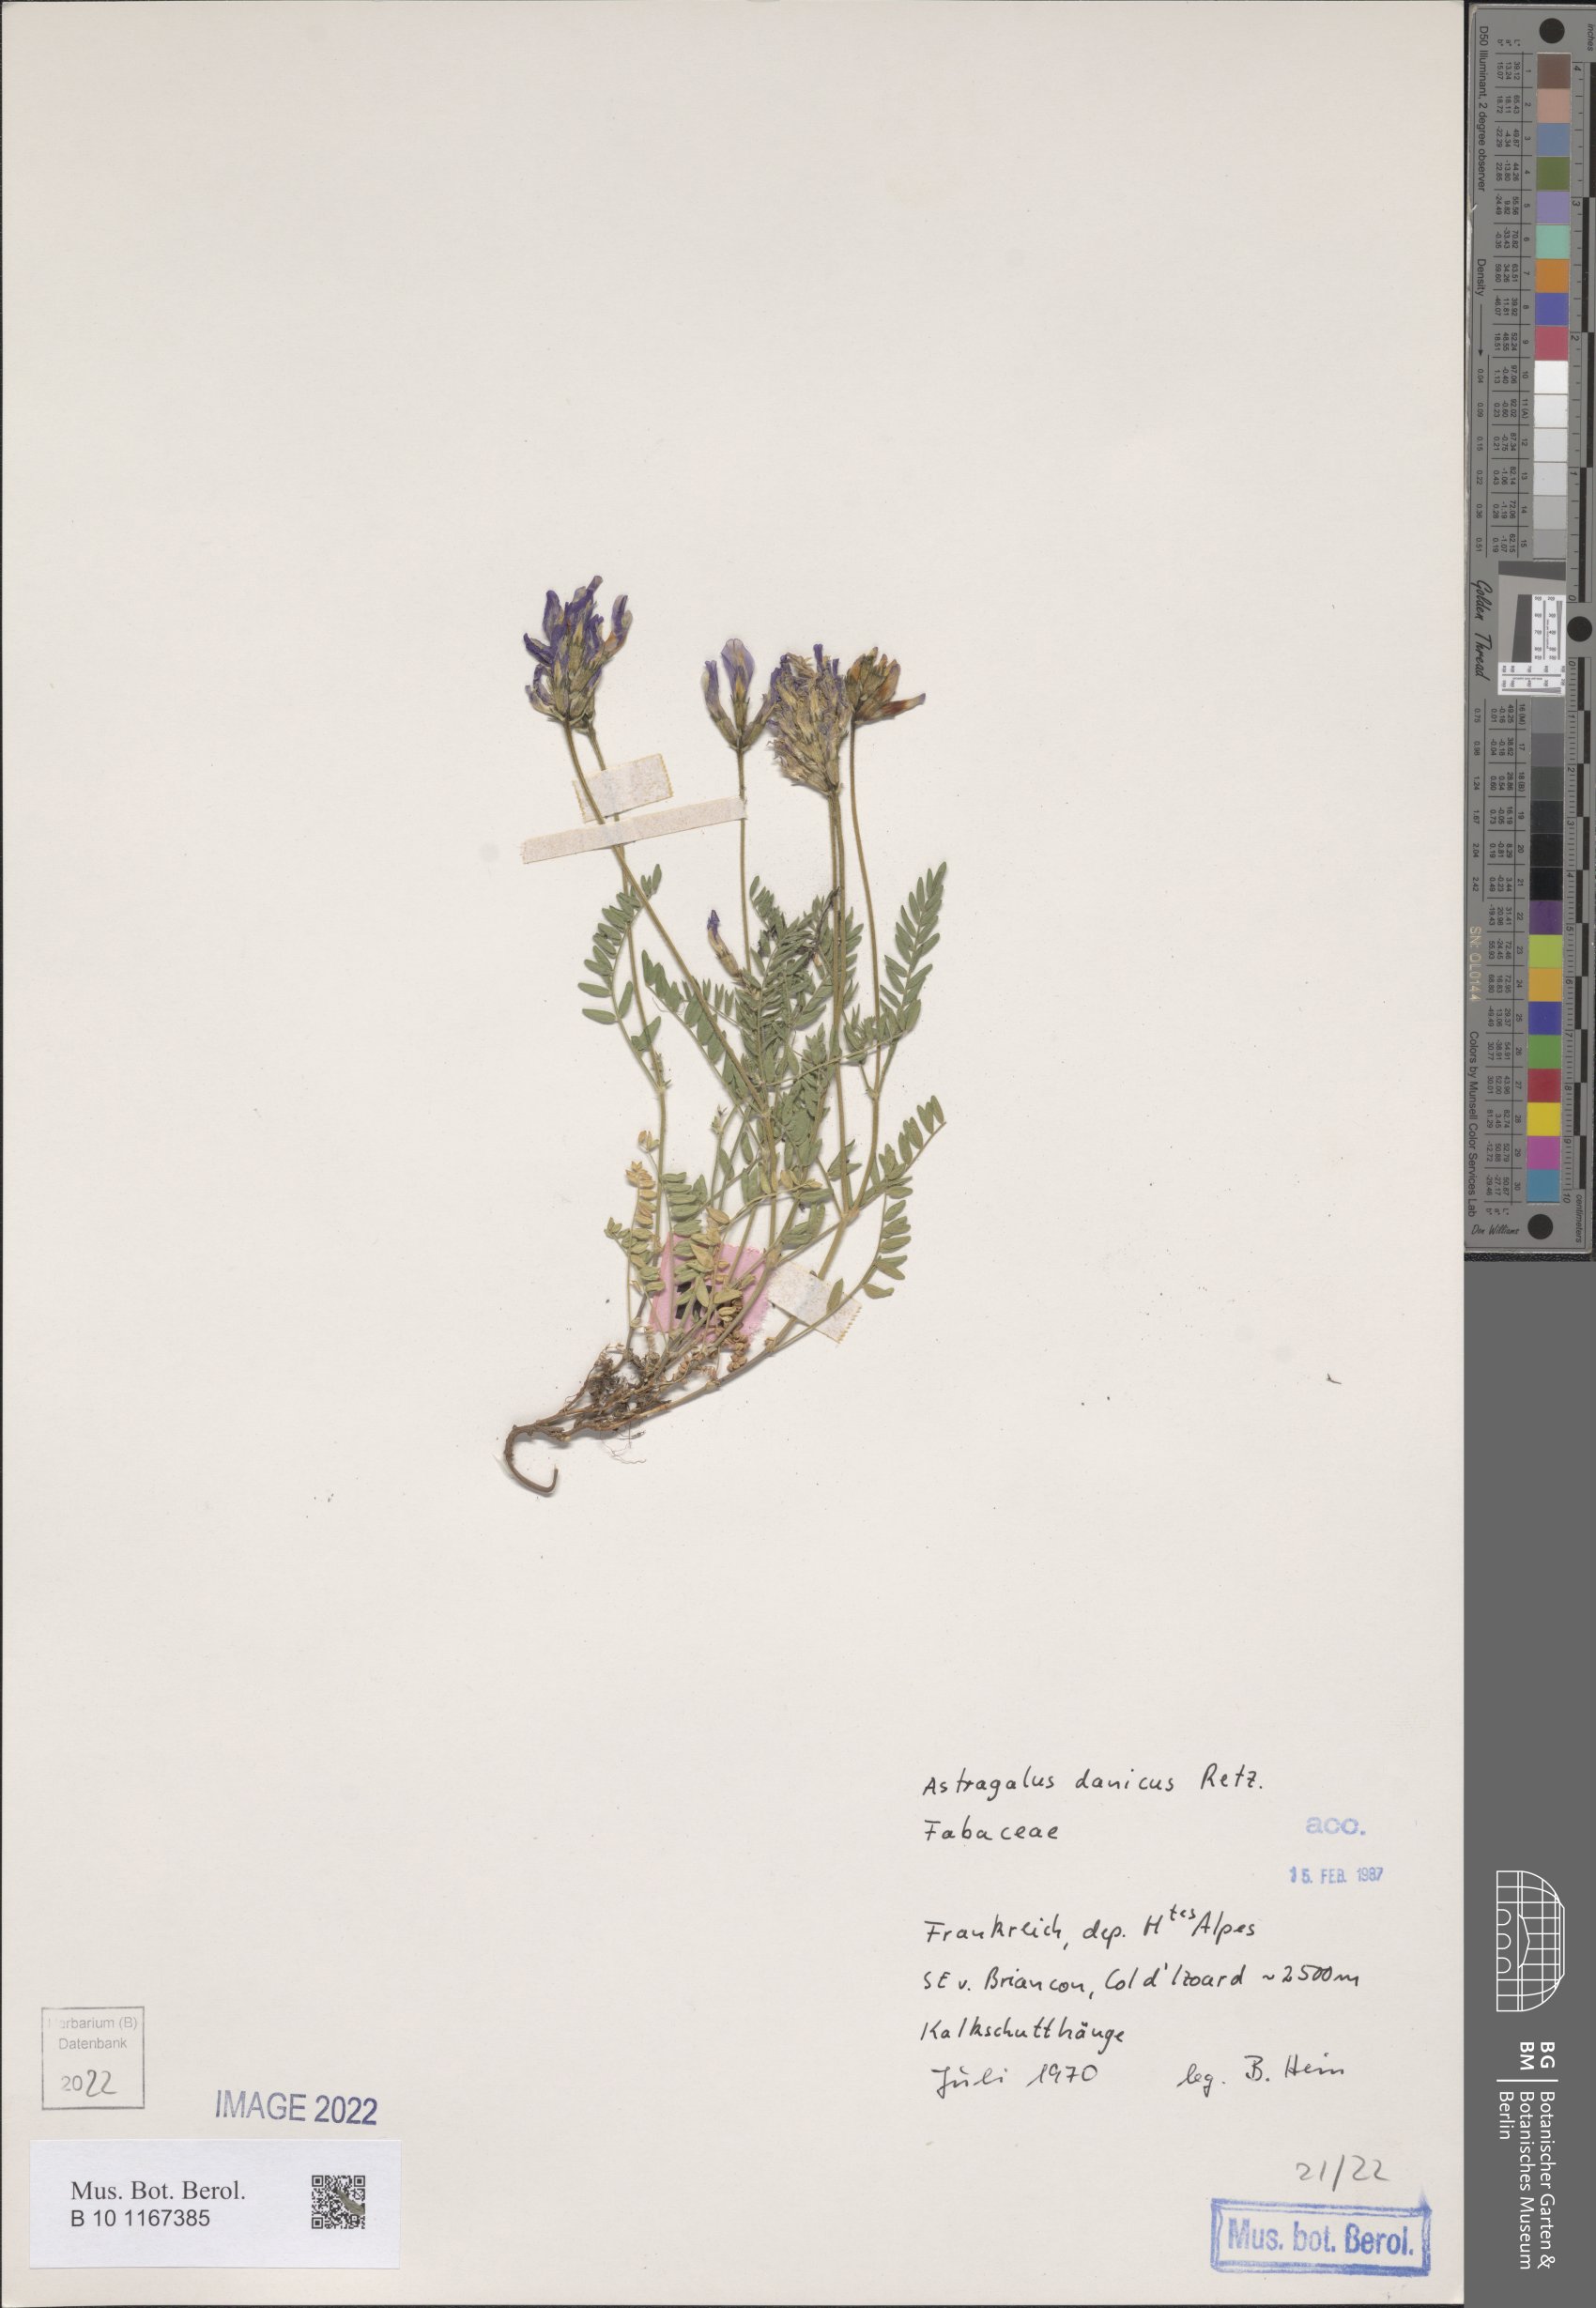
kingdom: Plantae
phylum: Tracheophyta
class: Magnoliopsida
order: Fabales
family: Fabaceae
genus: Astragalus
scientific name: Astragalus danicus
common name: Purple milk-vetch
